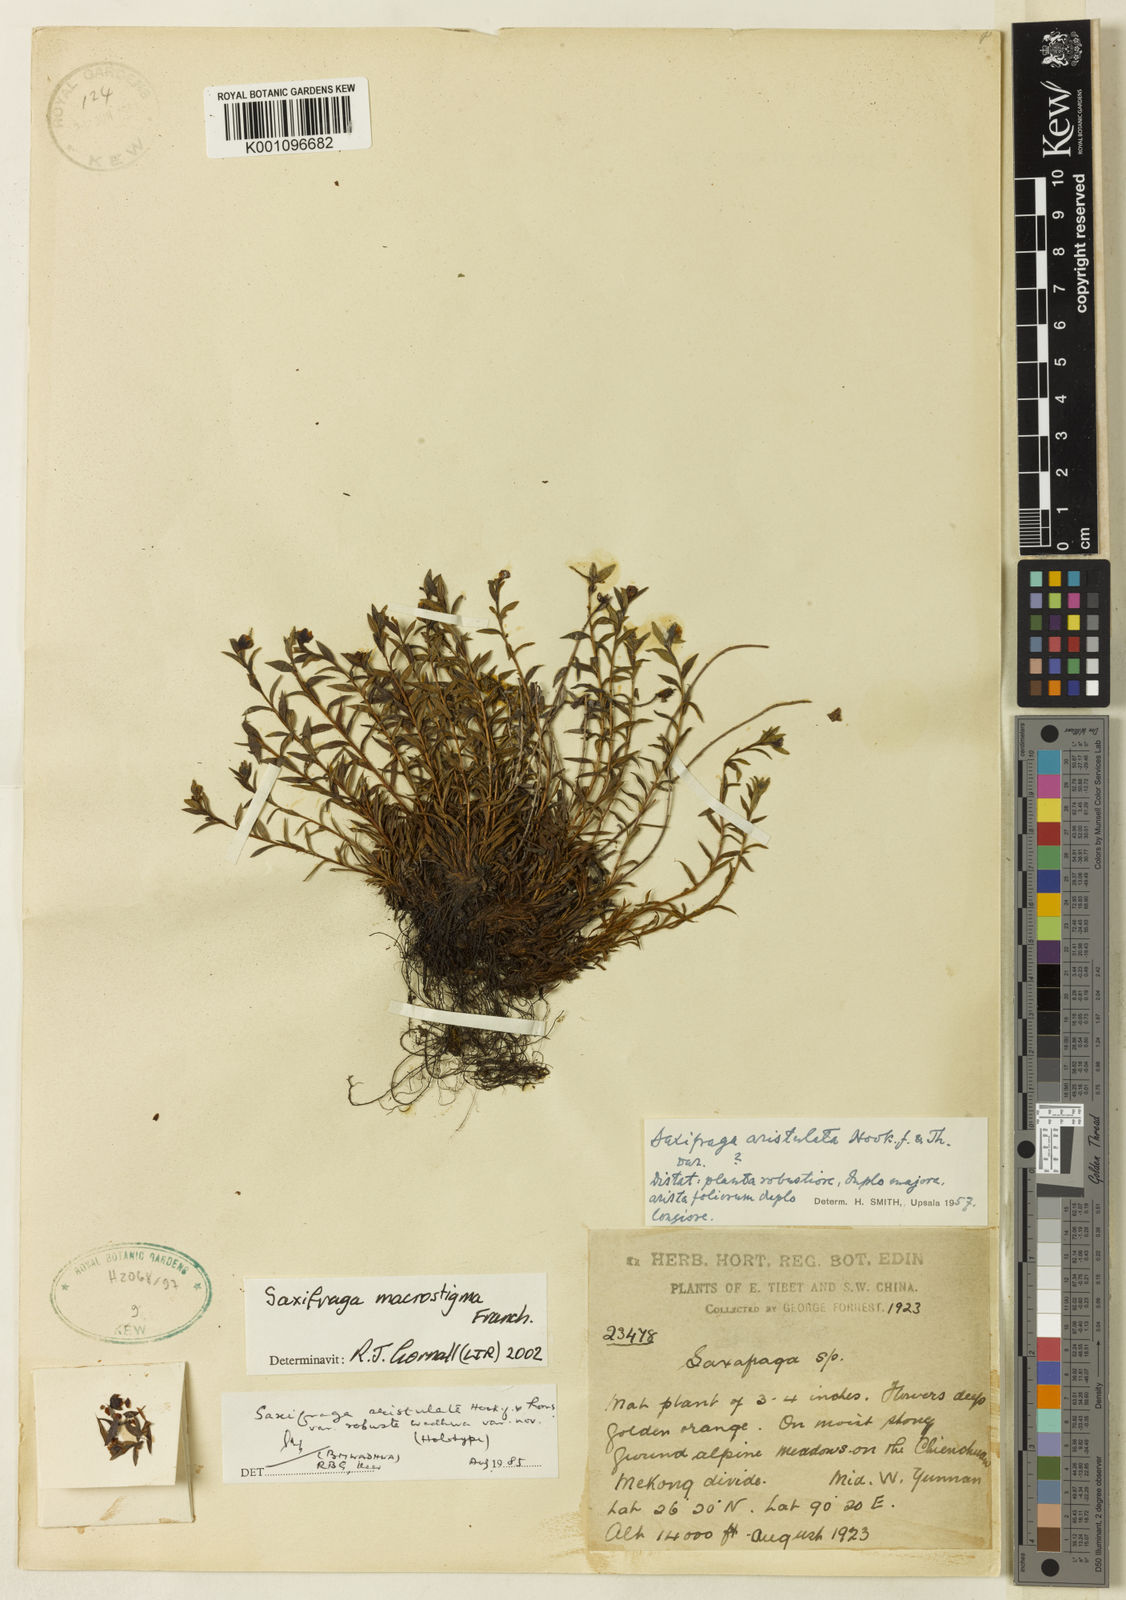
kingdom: Plantae
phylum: Tracheophyta
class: Magnoliopsida
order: Saxifragales
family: Saxifragaceae
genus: Saxifraga
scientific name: Saxifraga aristulata
